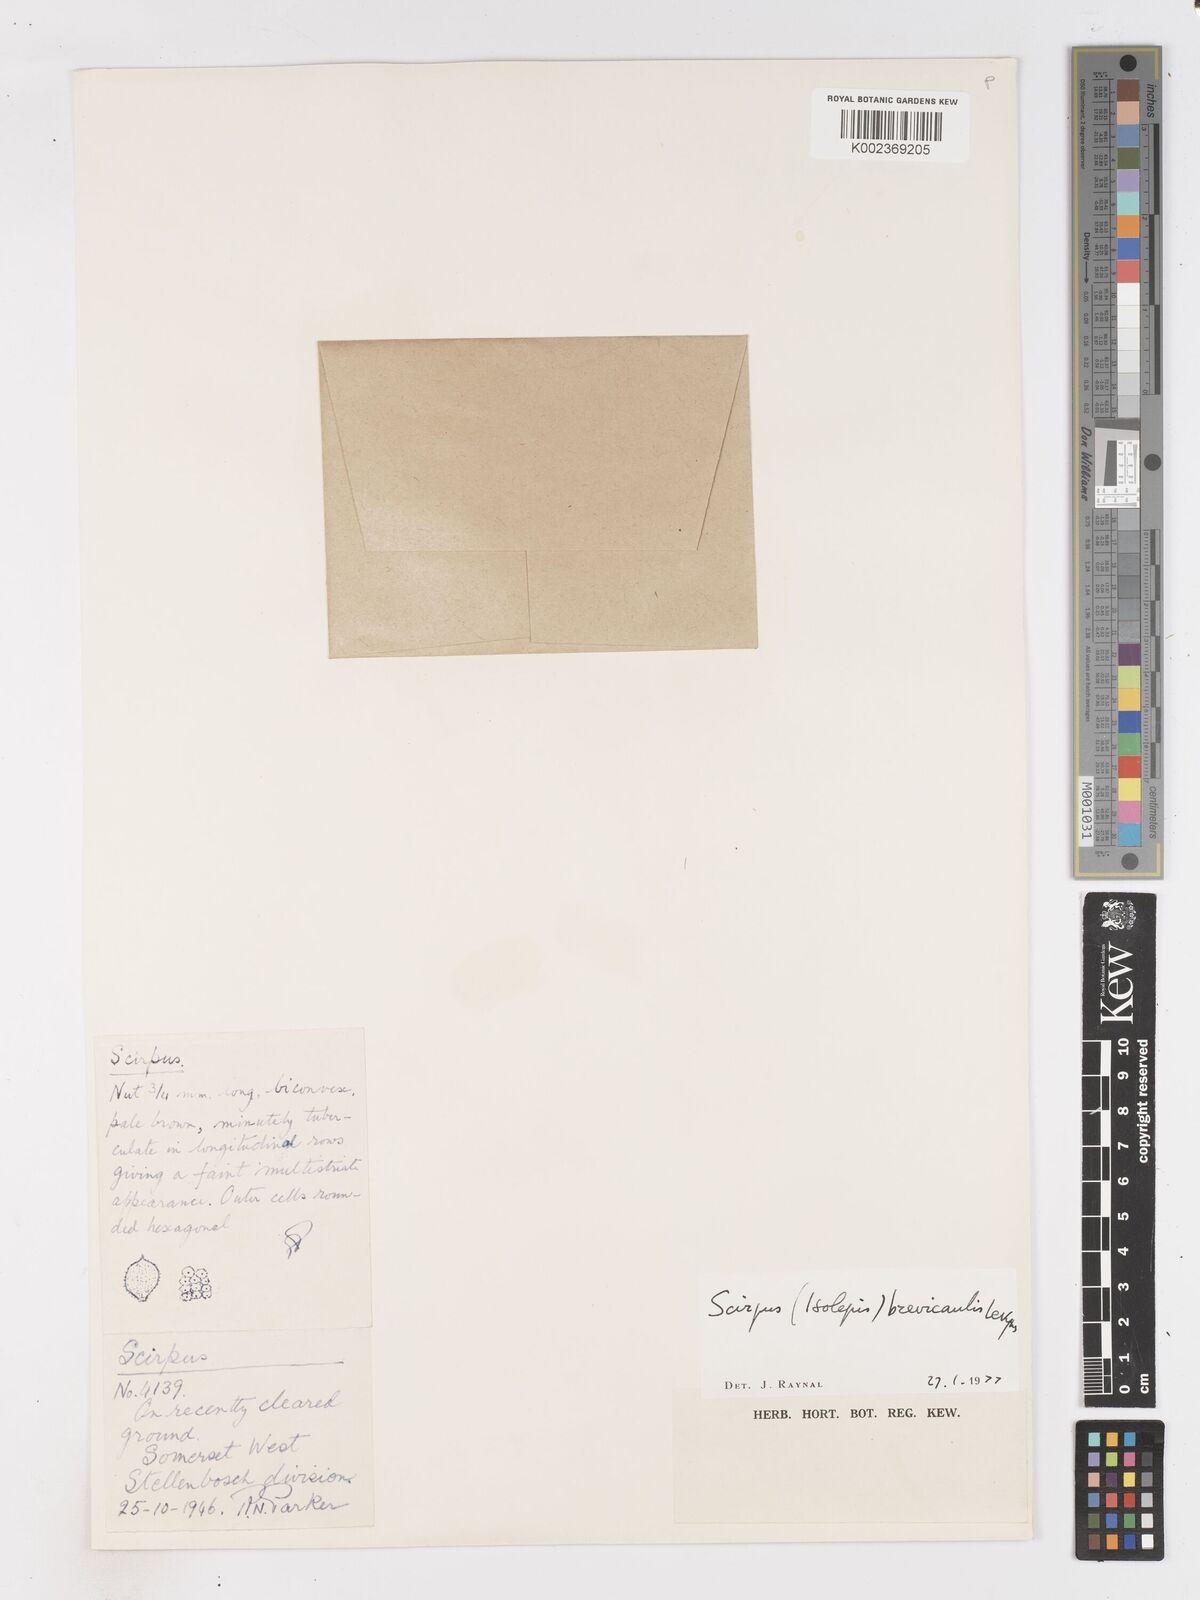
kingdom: Plantae
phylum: Tracheophyta
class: Liliopsida
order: Poales
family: Cyperaceae
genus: Isolepis
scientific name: Isolepis brevicaulis
